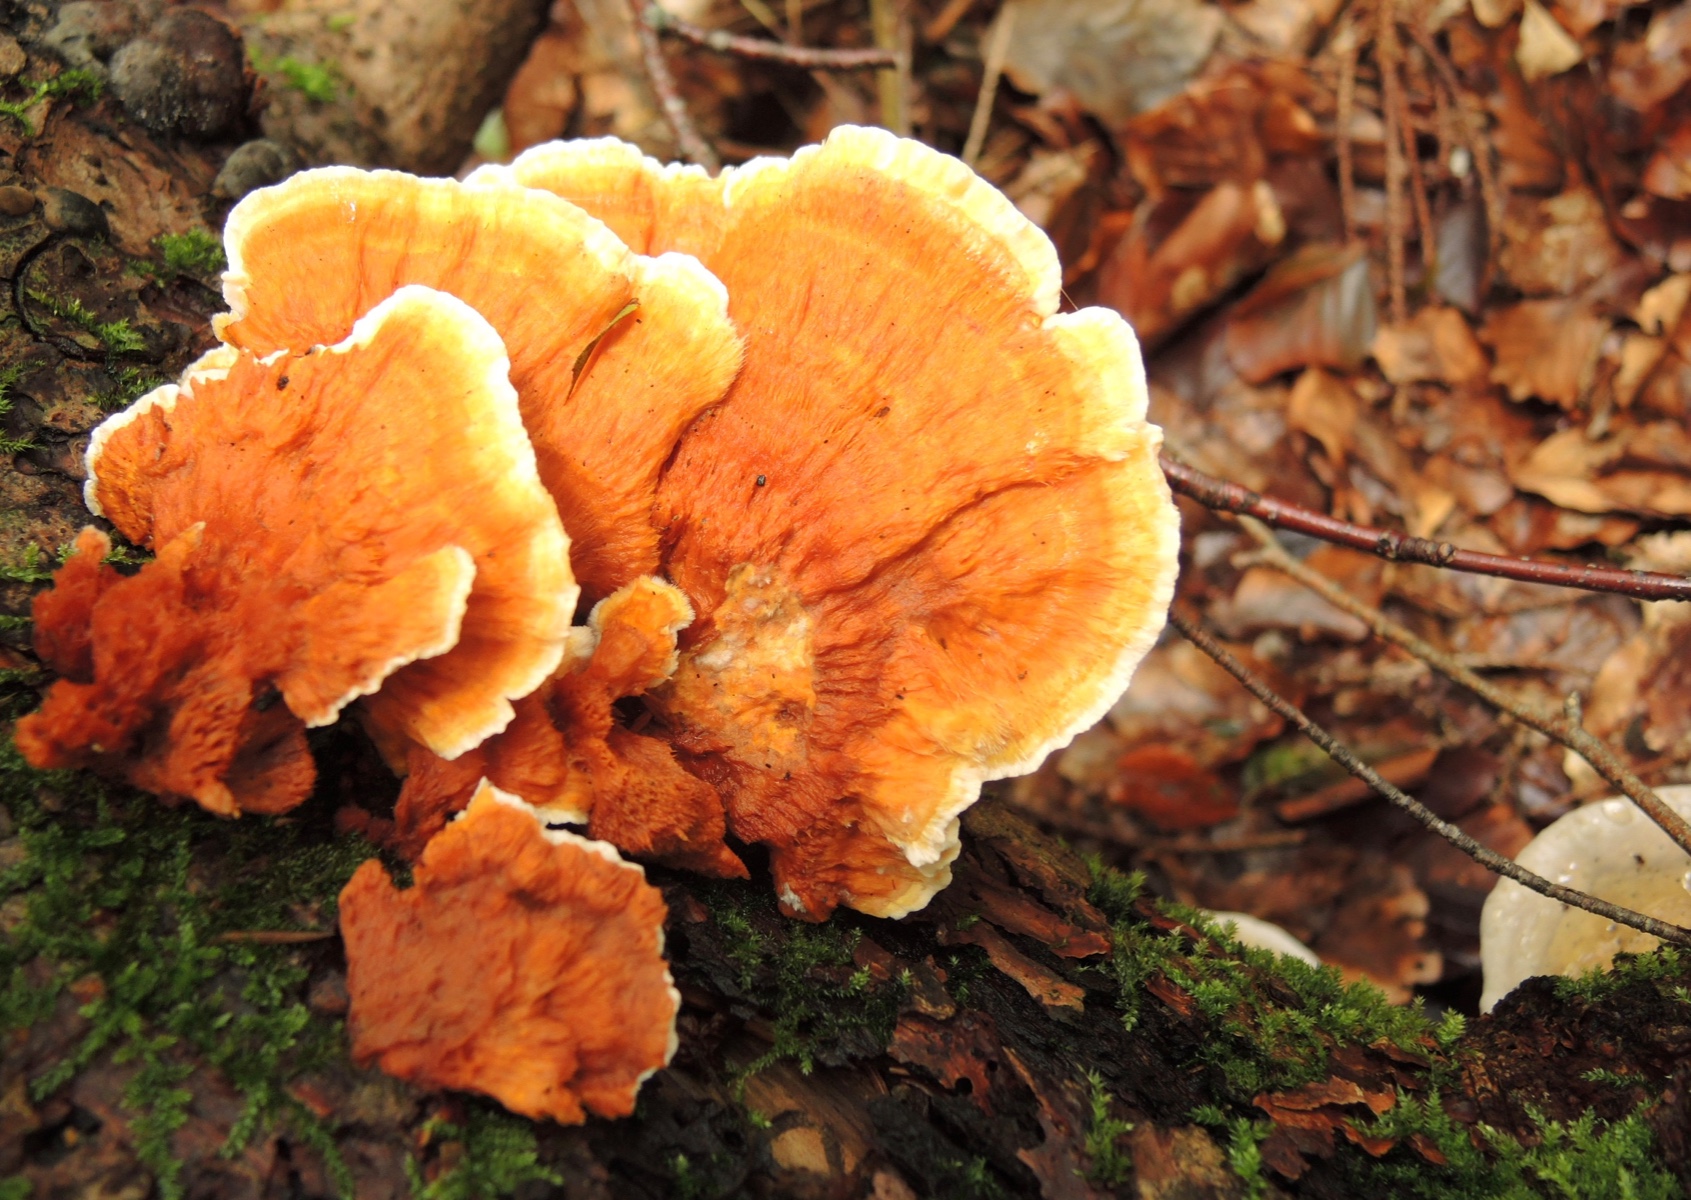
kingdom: Fungi
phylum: Basidiomycota
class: Agaricomycetes
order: Polyporales
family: Pycnoporellaceae
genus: Pycnoporellus
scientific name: Pycnoporellus fulgens
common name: flammeporesvamp
